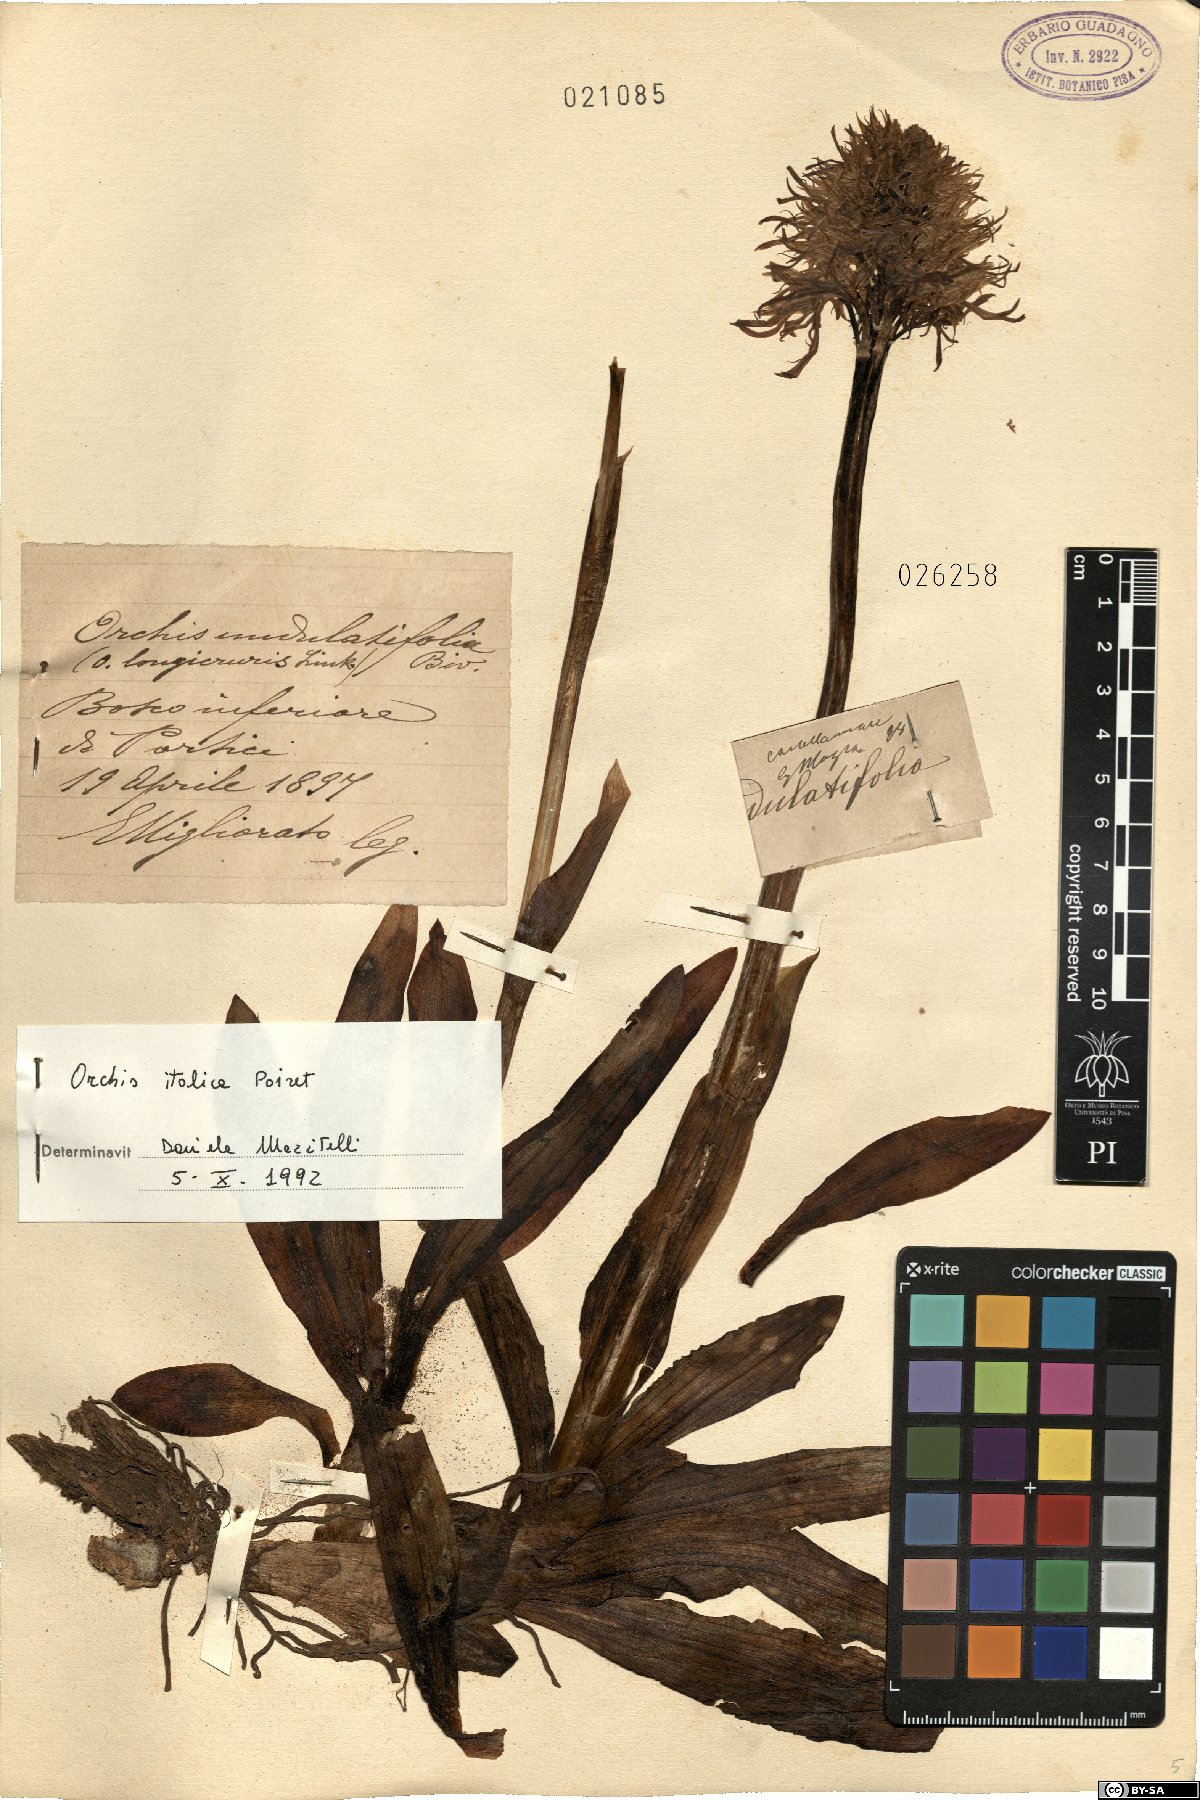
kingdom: Plantae
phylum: Tracheophyta
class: Liliopsida
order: Asparagales
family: Orchidaceae
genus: Orchis
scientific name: Orchis italica
